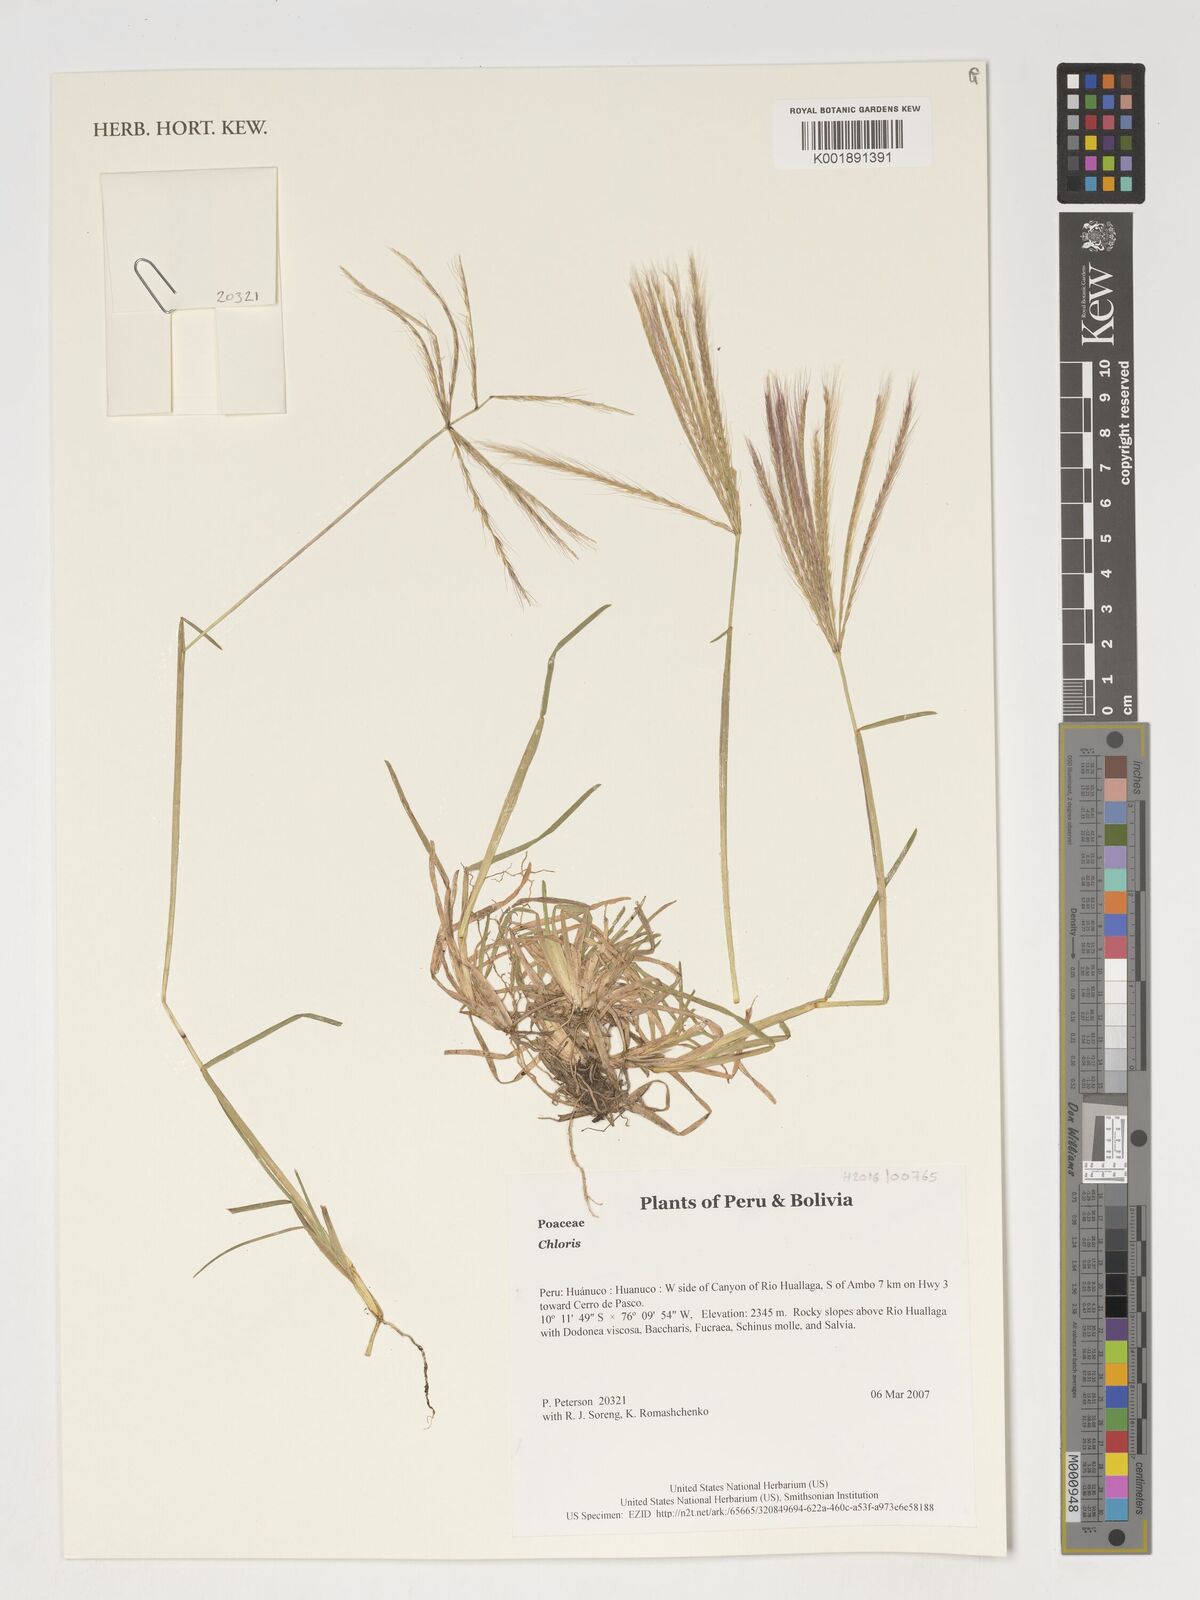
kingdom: Plantae
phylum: Tracheophyta
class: Liliopsida
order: Poales
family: Poaceae
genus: Chloris
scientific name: Chloris
